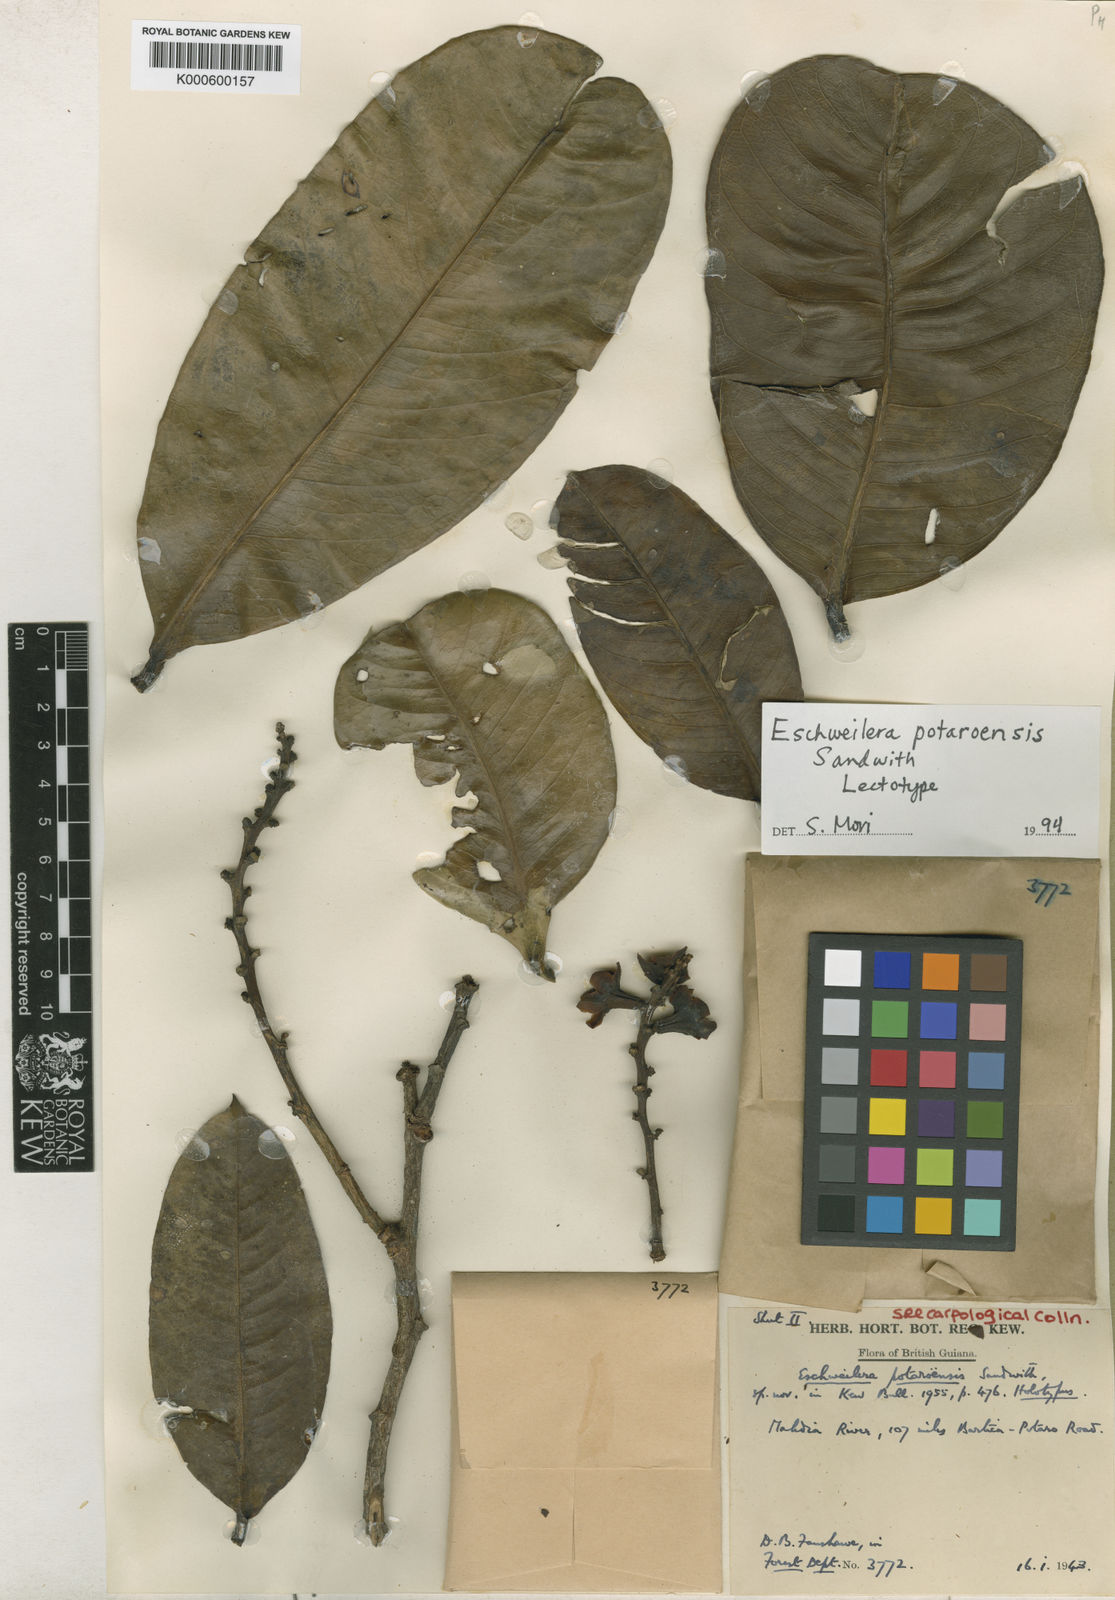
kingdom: Plantae
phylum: Tracheophyta
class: Magnoliopsida
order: Ericales
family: Lecythidaceae
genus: Eschweilera
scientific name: Eschweilera potaroensis
